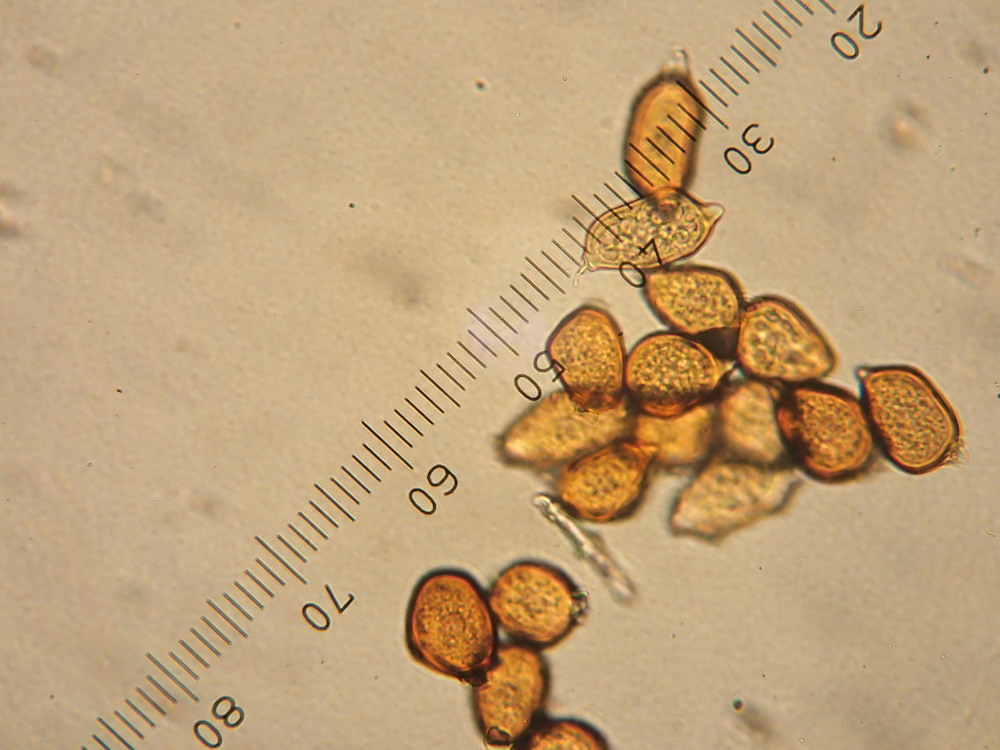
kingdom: Fungi
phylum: Basidiomycota
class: Pucciniomycetes
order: Pucciniales
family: Pucciniaceae
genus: Uromyces
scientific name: Uromyces ficariae
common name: vorterod-encellerust
